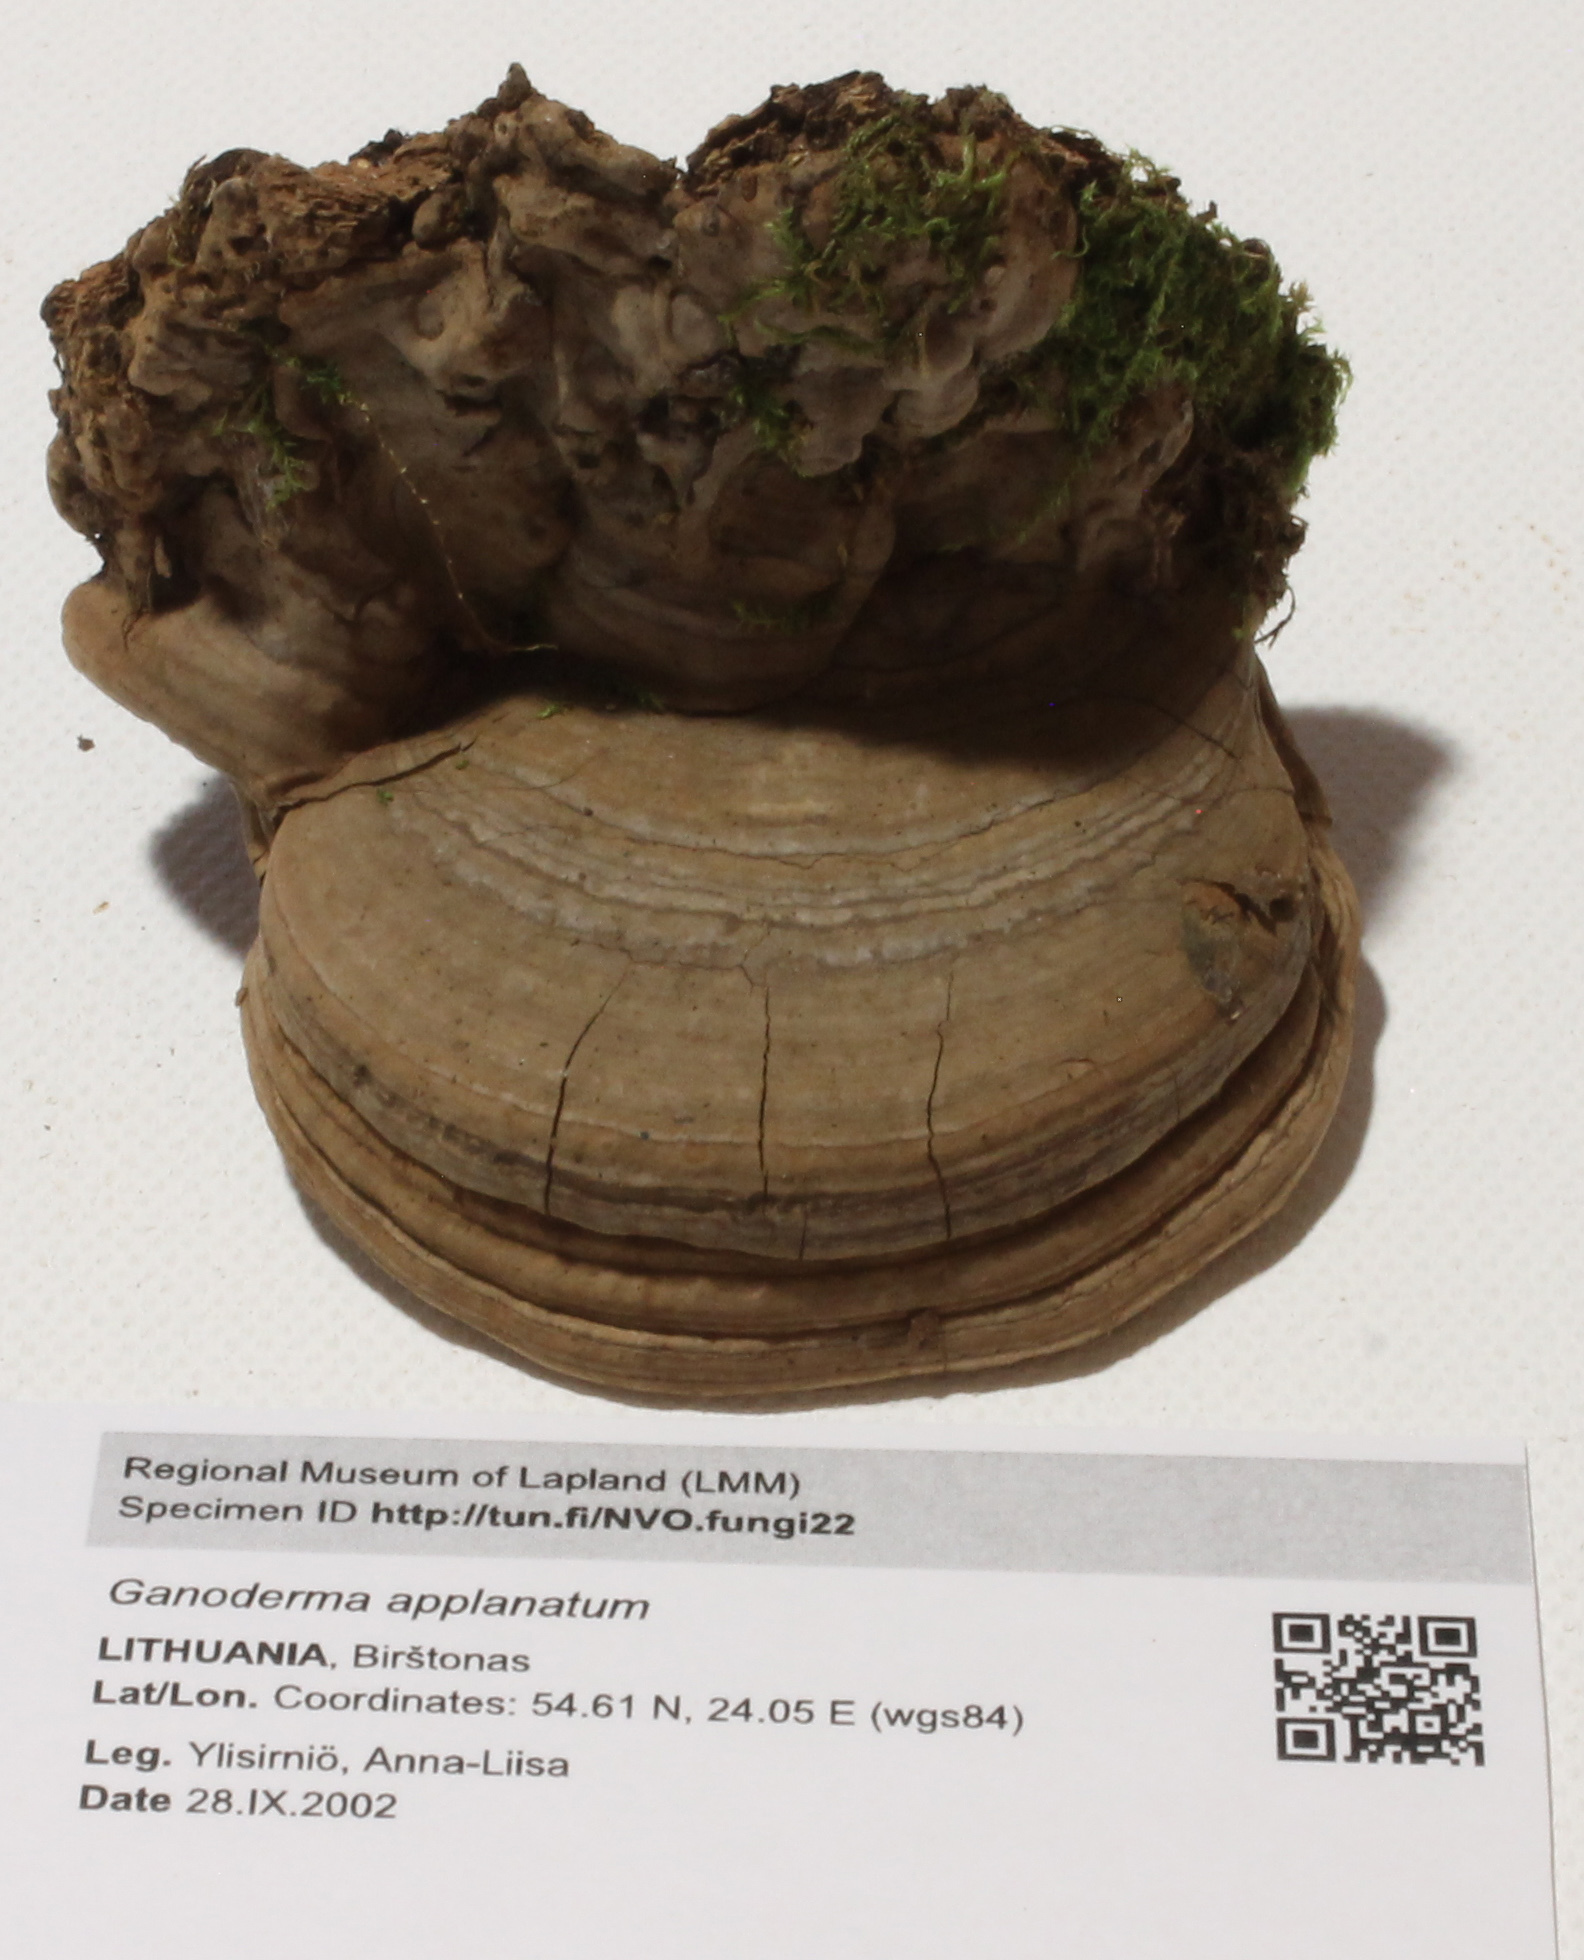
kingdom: Fungi
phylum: Basidiomycota
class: Agaricomycetes
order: Polyporales
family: Polyporaceae
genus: Ganoderma
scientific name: Ganoderma applanatum
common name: Artist's bracket
